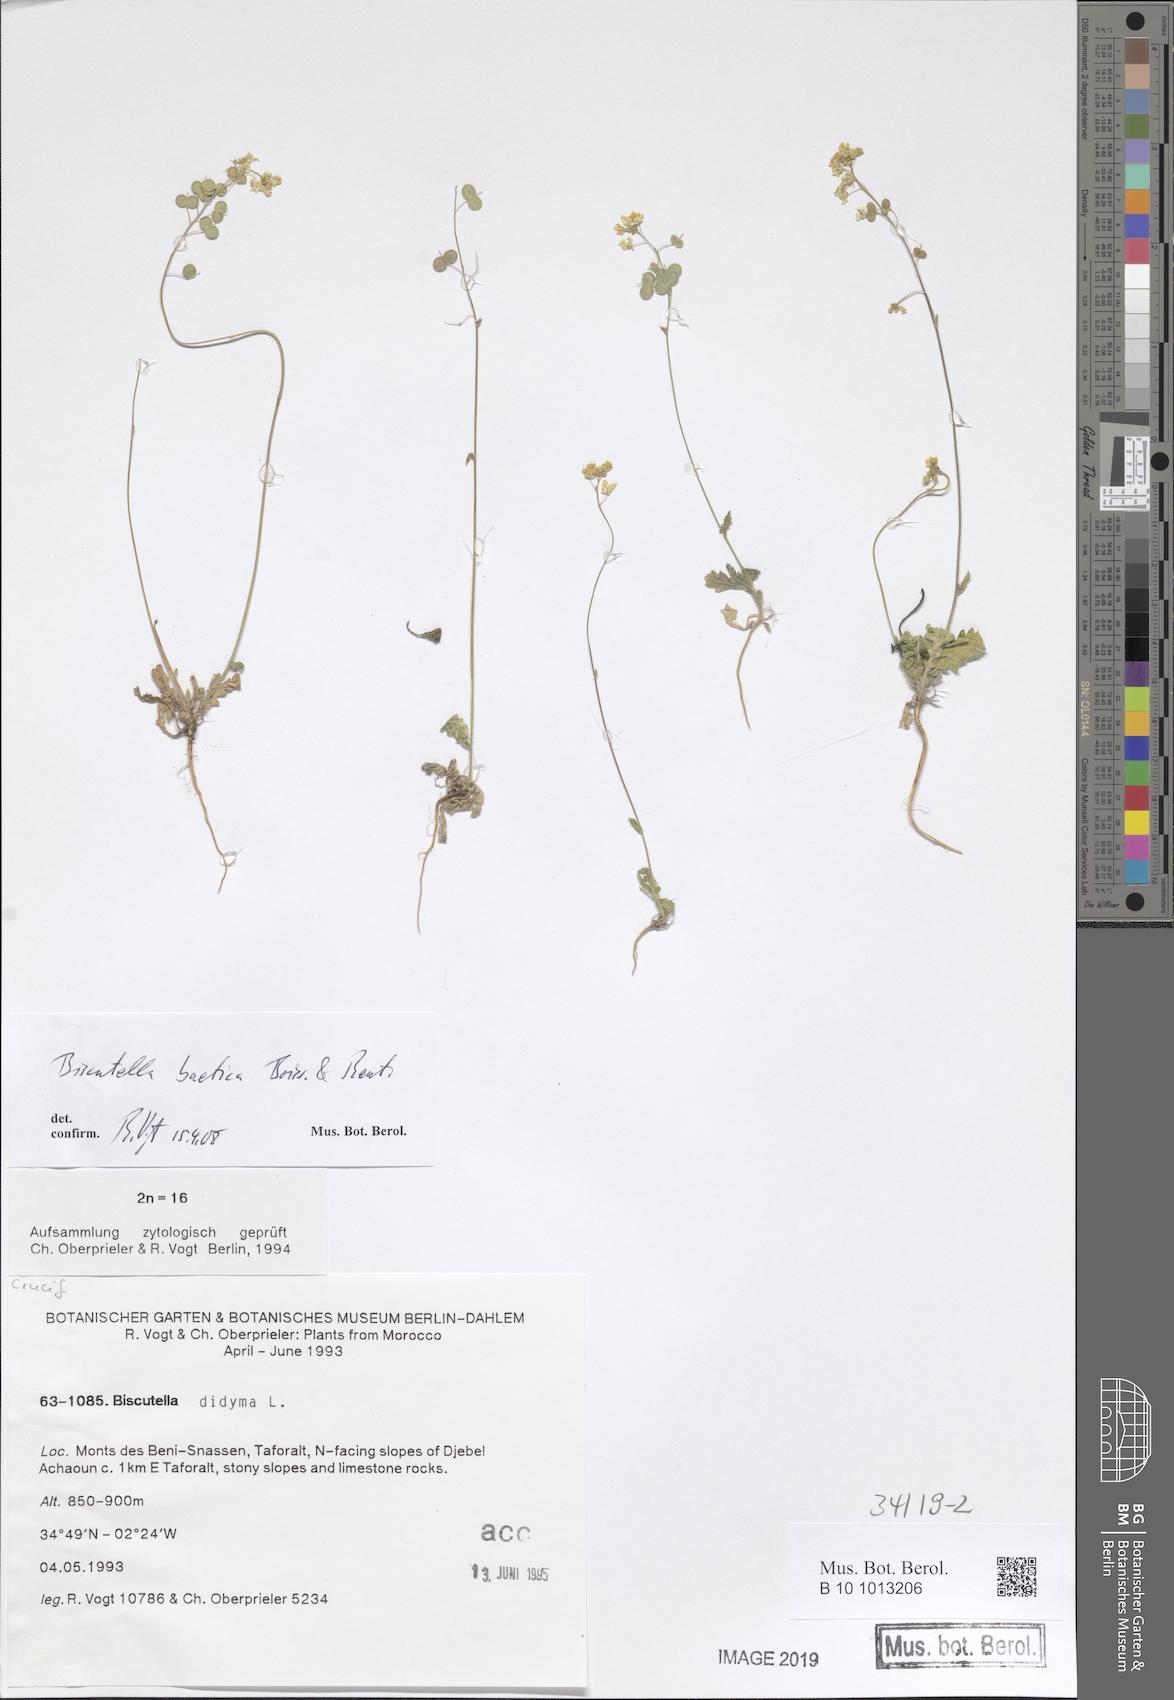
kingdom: Plantae
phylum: Tracheophyta
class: Magnoliopsida
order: Brassicales
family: Brassicaceae
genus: Biscutella
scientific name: Biscutella eriocarpa
